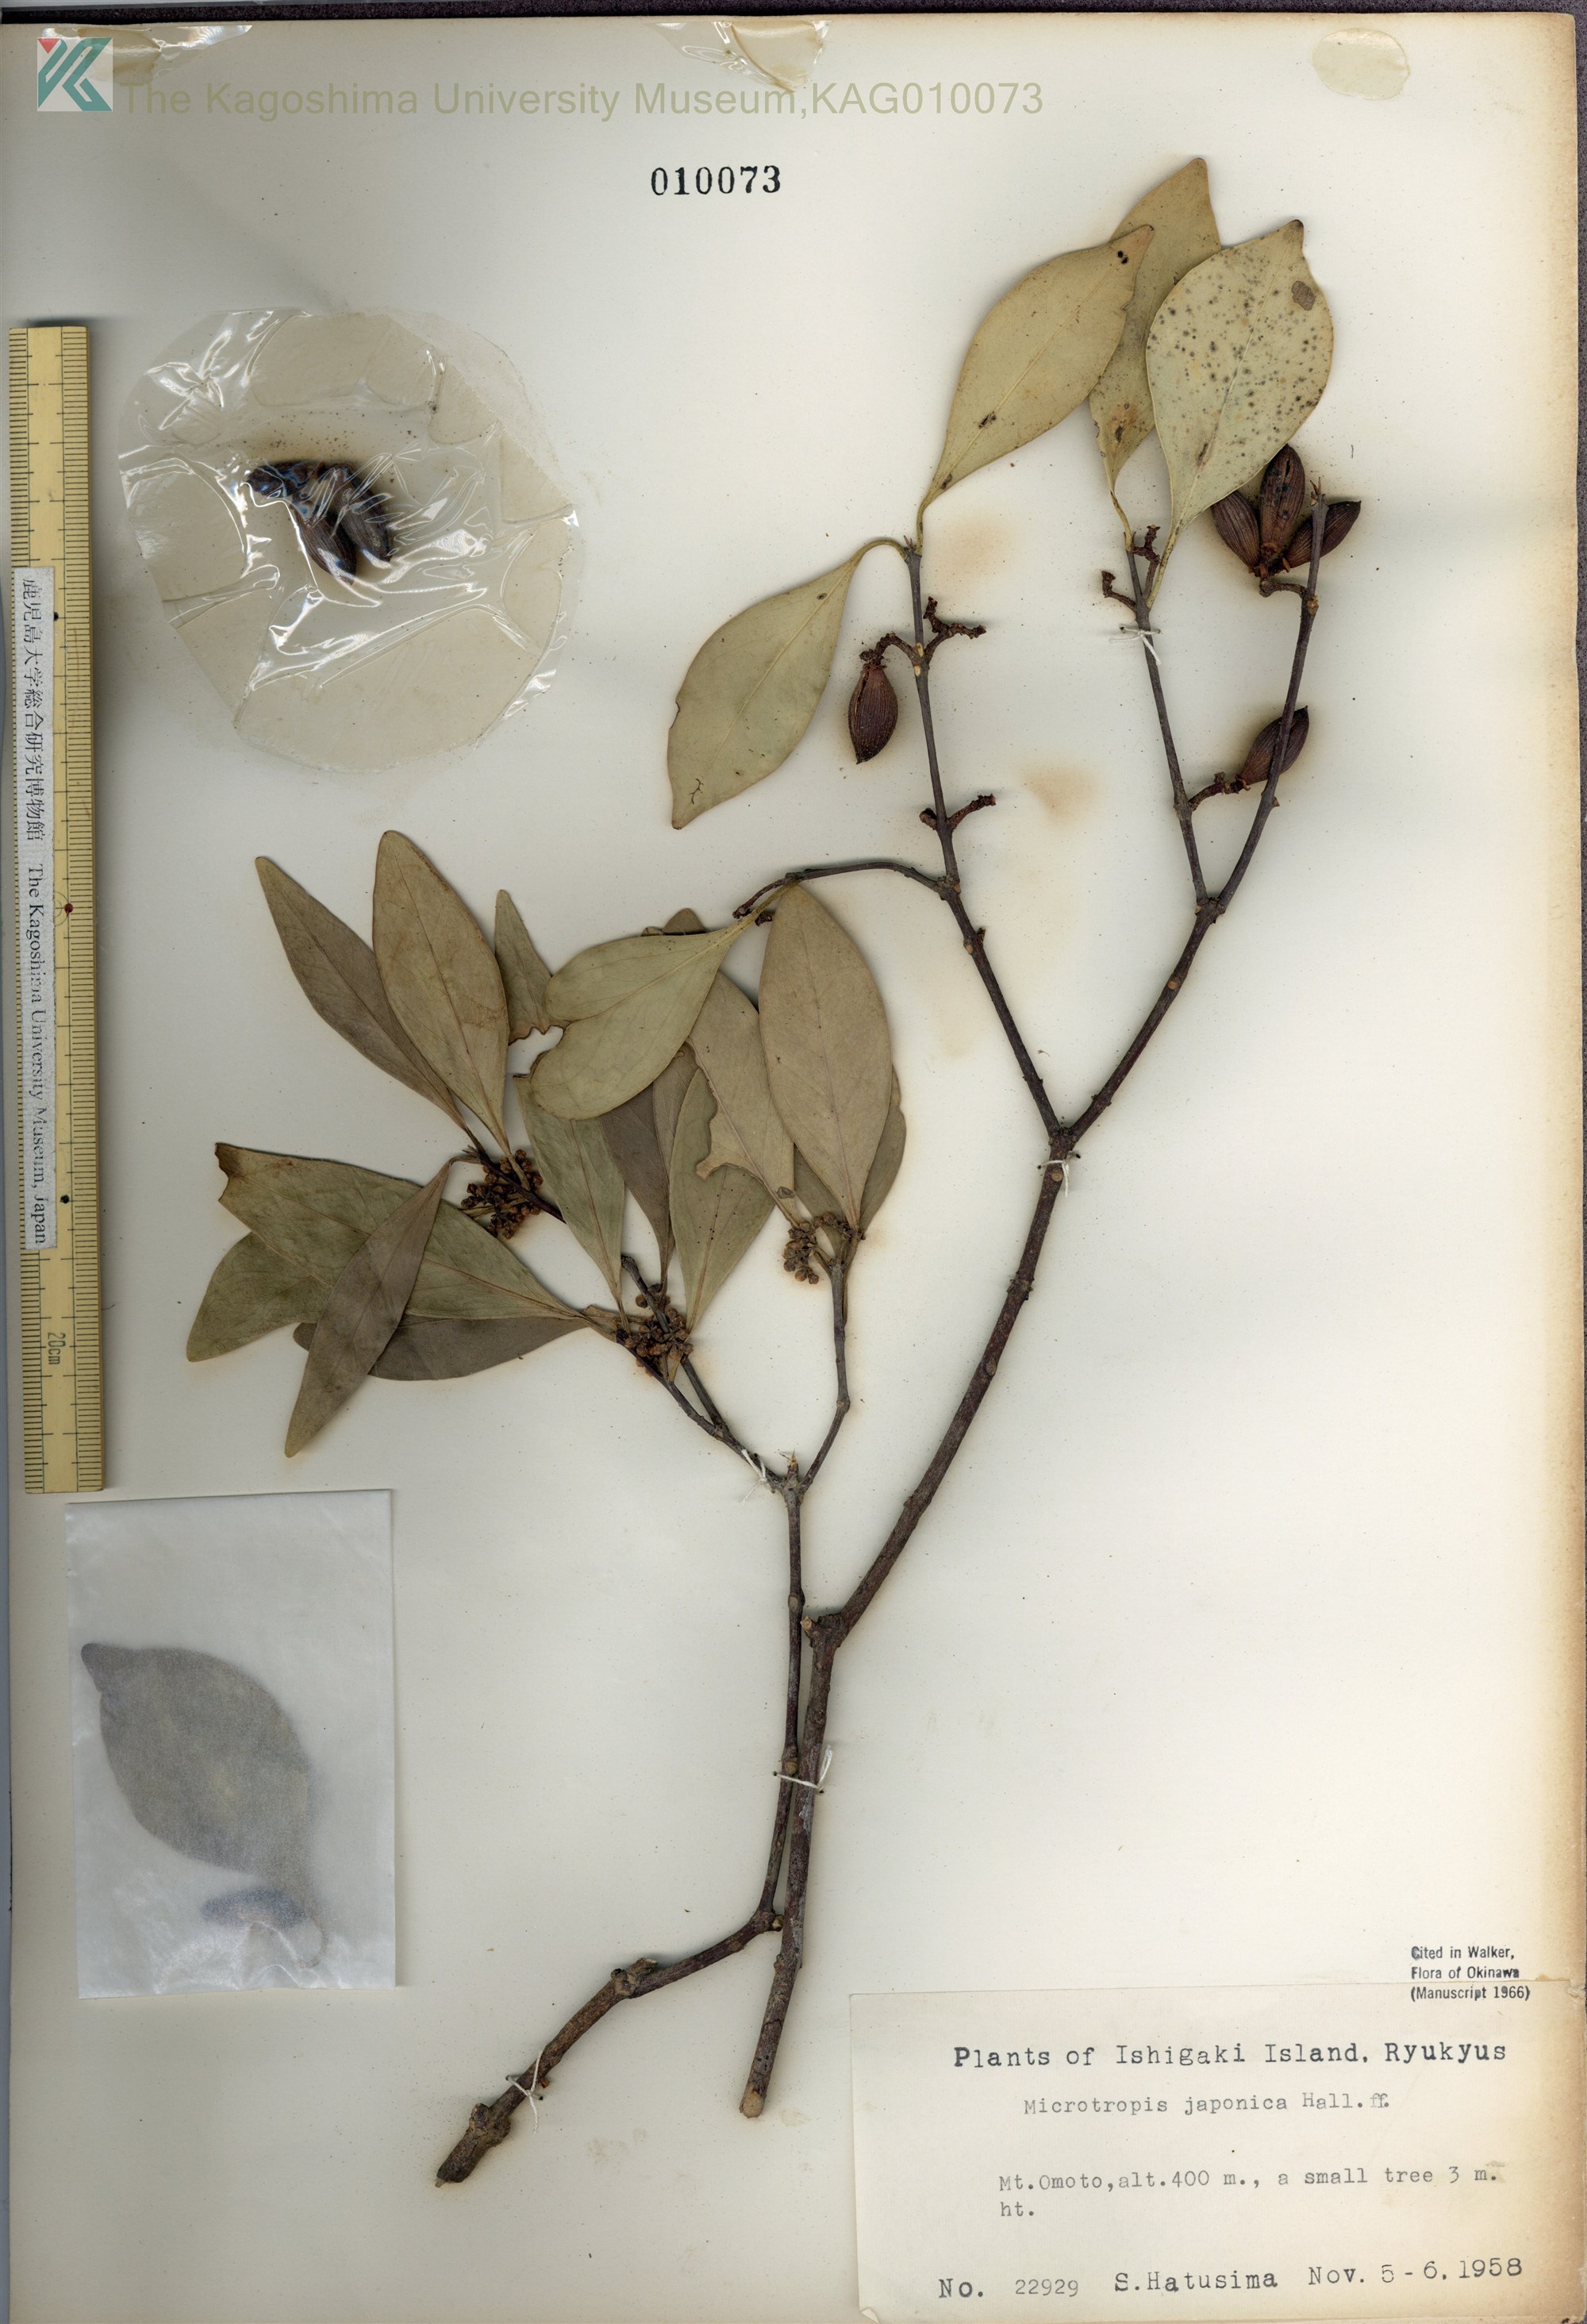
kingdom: Plantae
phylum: Tracheophyta
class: Magnoliopsida
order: Celastrales
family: Celastraceae
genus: Microtropis
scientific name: Microtropis japonica
